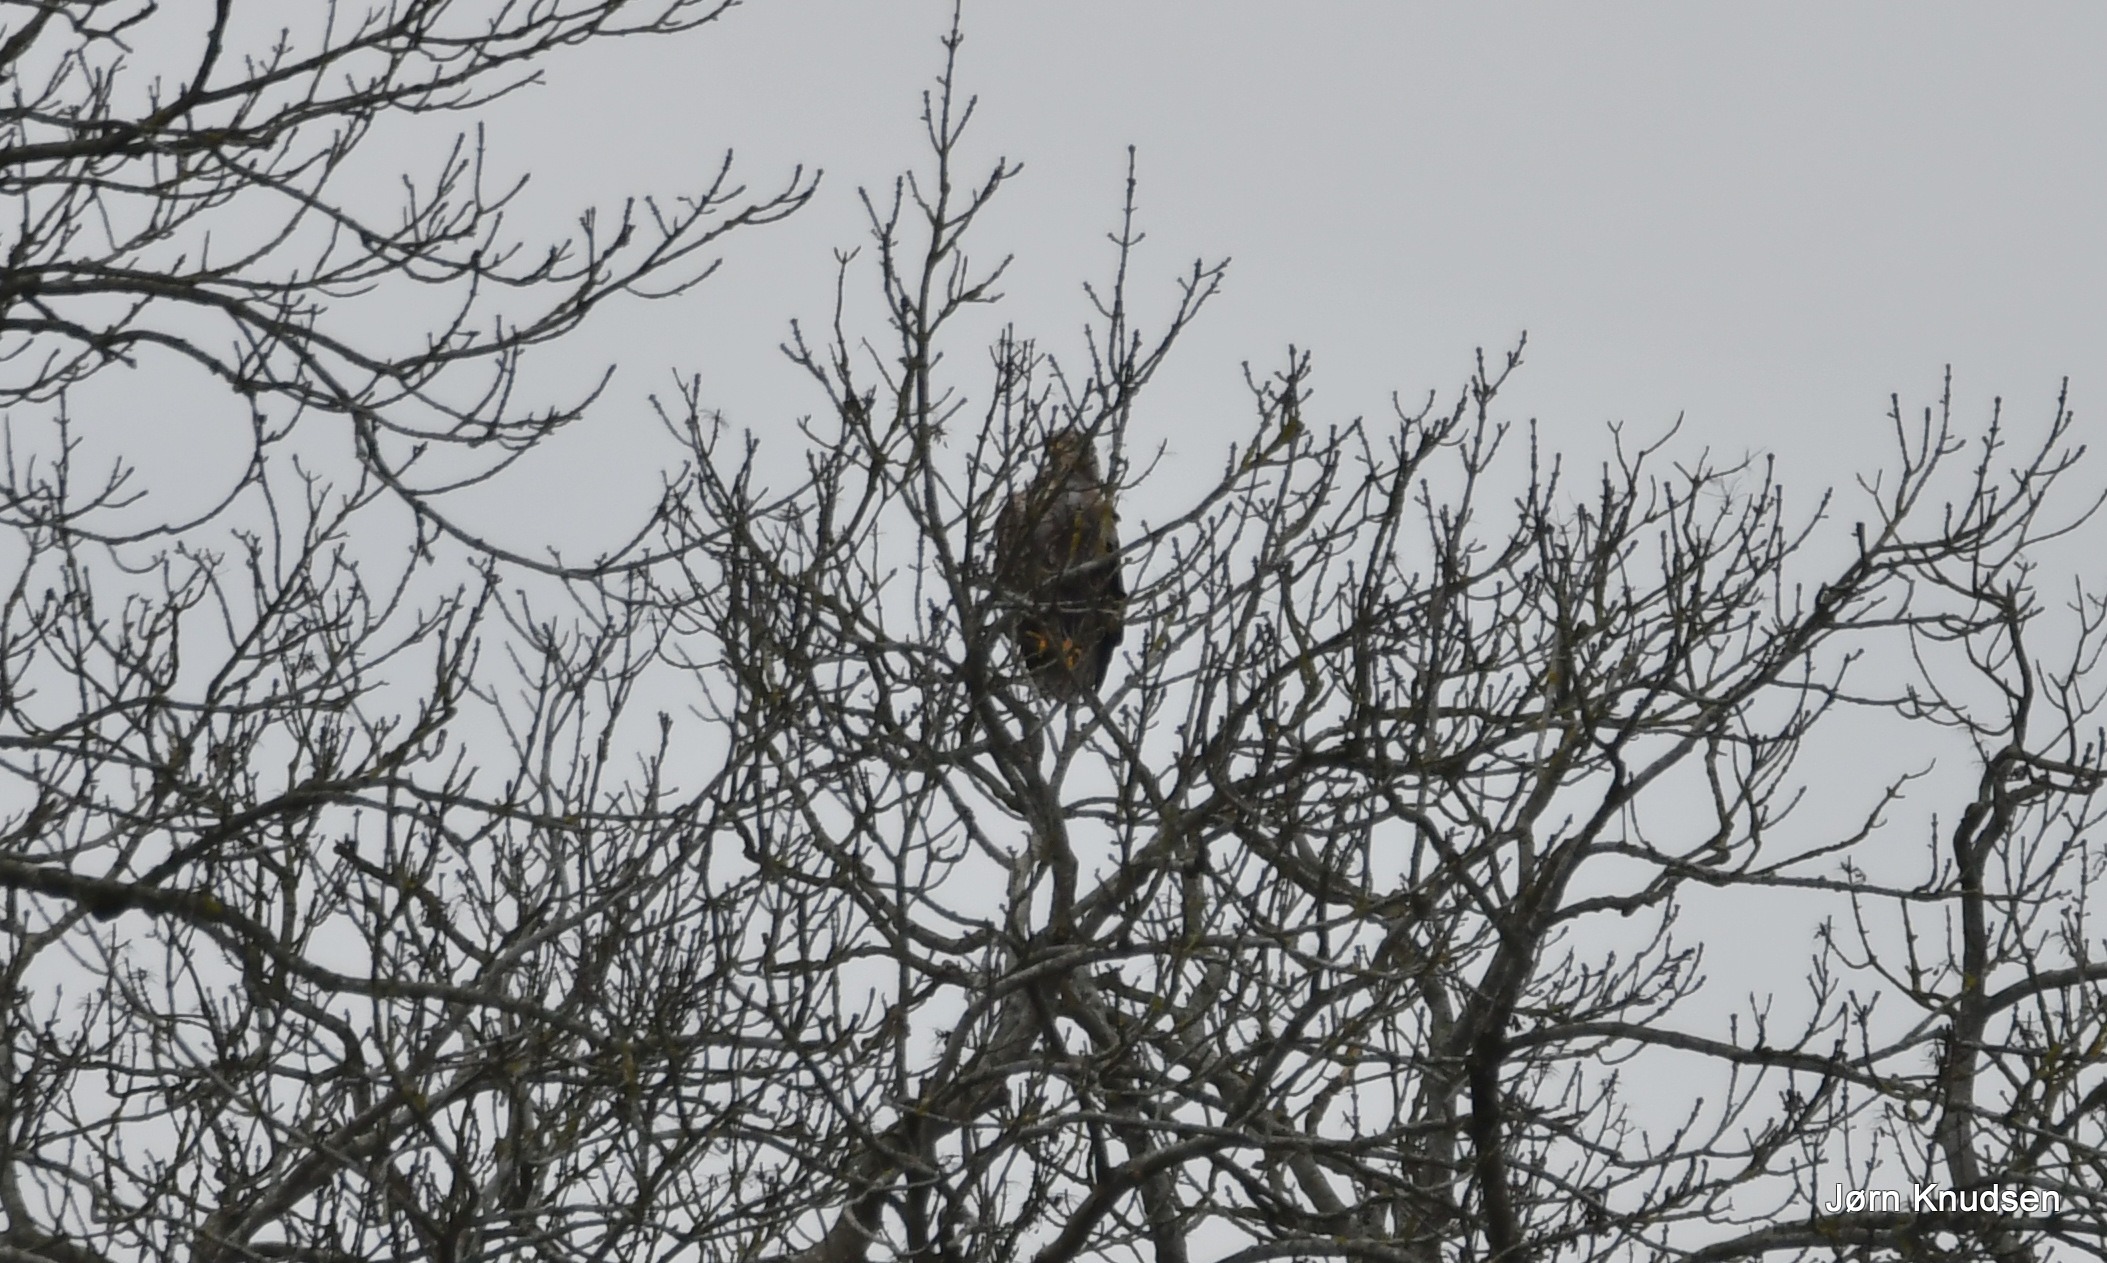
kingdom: Animalia
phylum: Chordata
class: Aves
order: Accipitriformes
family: Accipitridae
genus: Haliaeetus
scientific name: Haliaeetus albicilla
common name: Havørn
